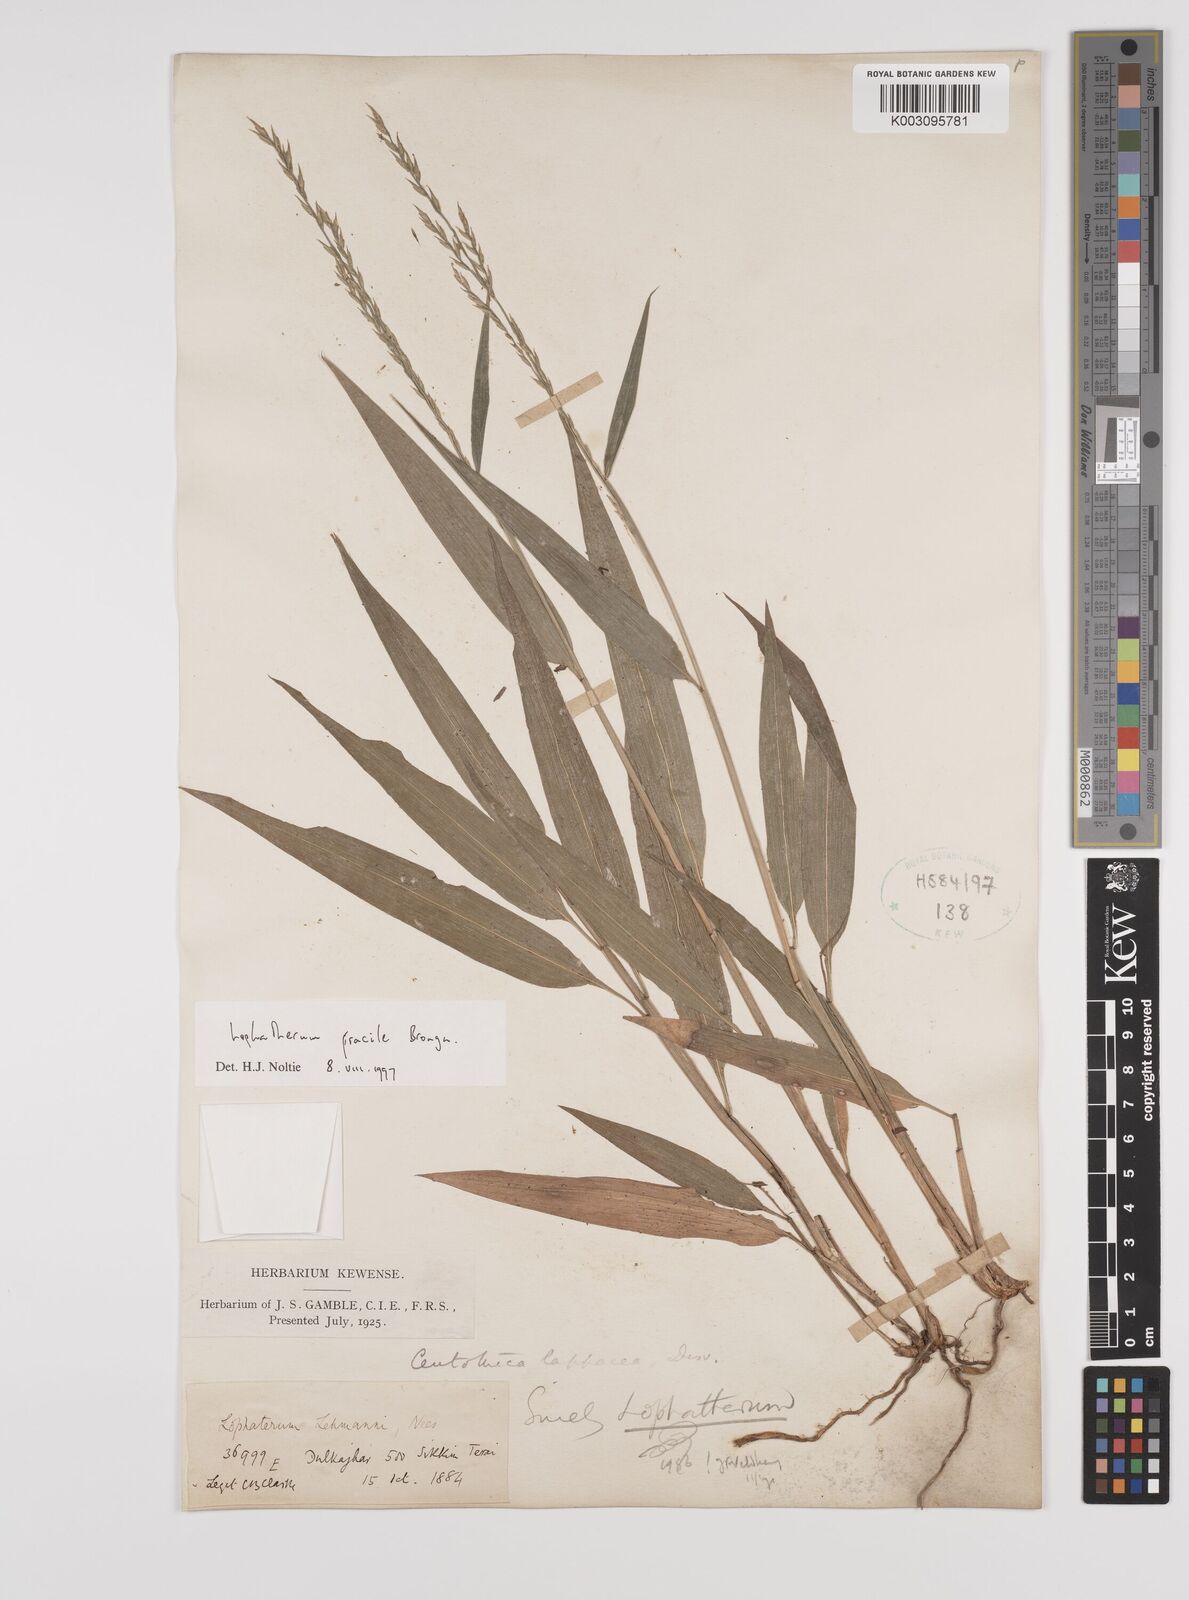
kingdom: Plantae
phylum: Tracheophyta
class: Liliopsida
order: Poales
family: Poaceae
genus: Lophatherum
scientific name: Lophatherum gracile
